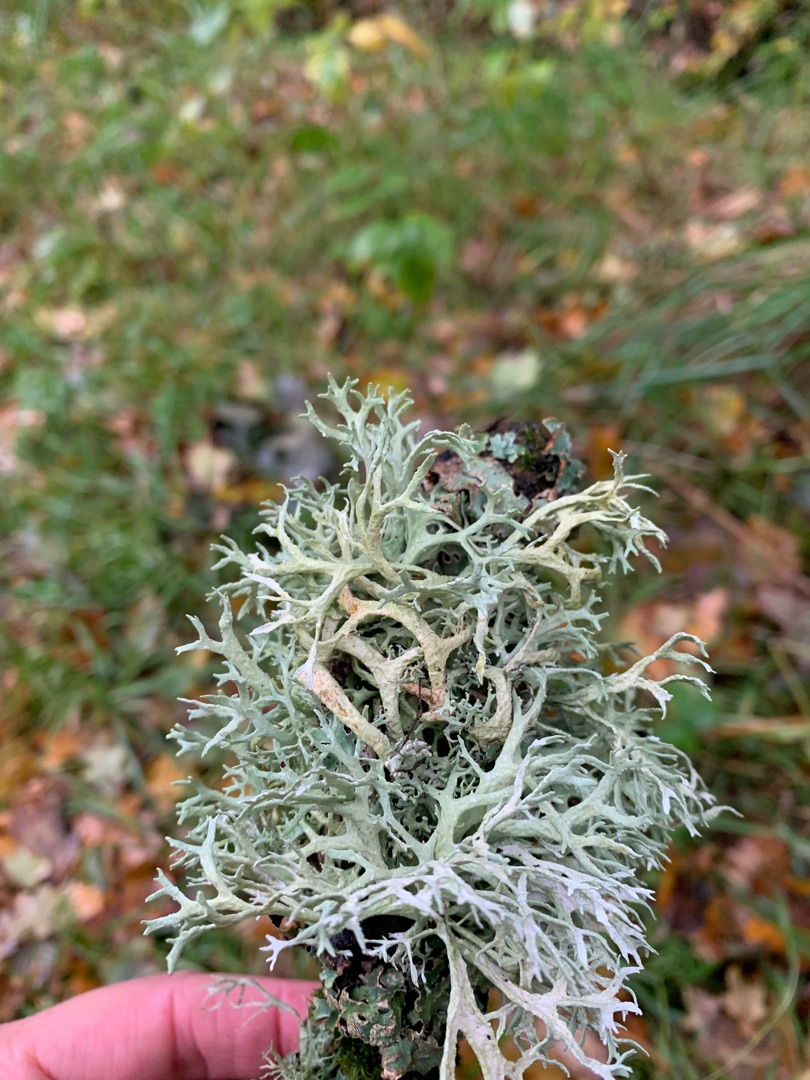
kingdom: Fungi
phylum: Ascomycota
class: Lecanoromycetes
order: Lecanorales
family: Parmeliaceae
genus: Evernia
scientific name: Evernia prunastri
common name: Almindelig slåenlav
